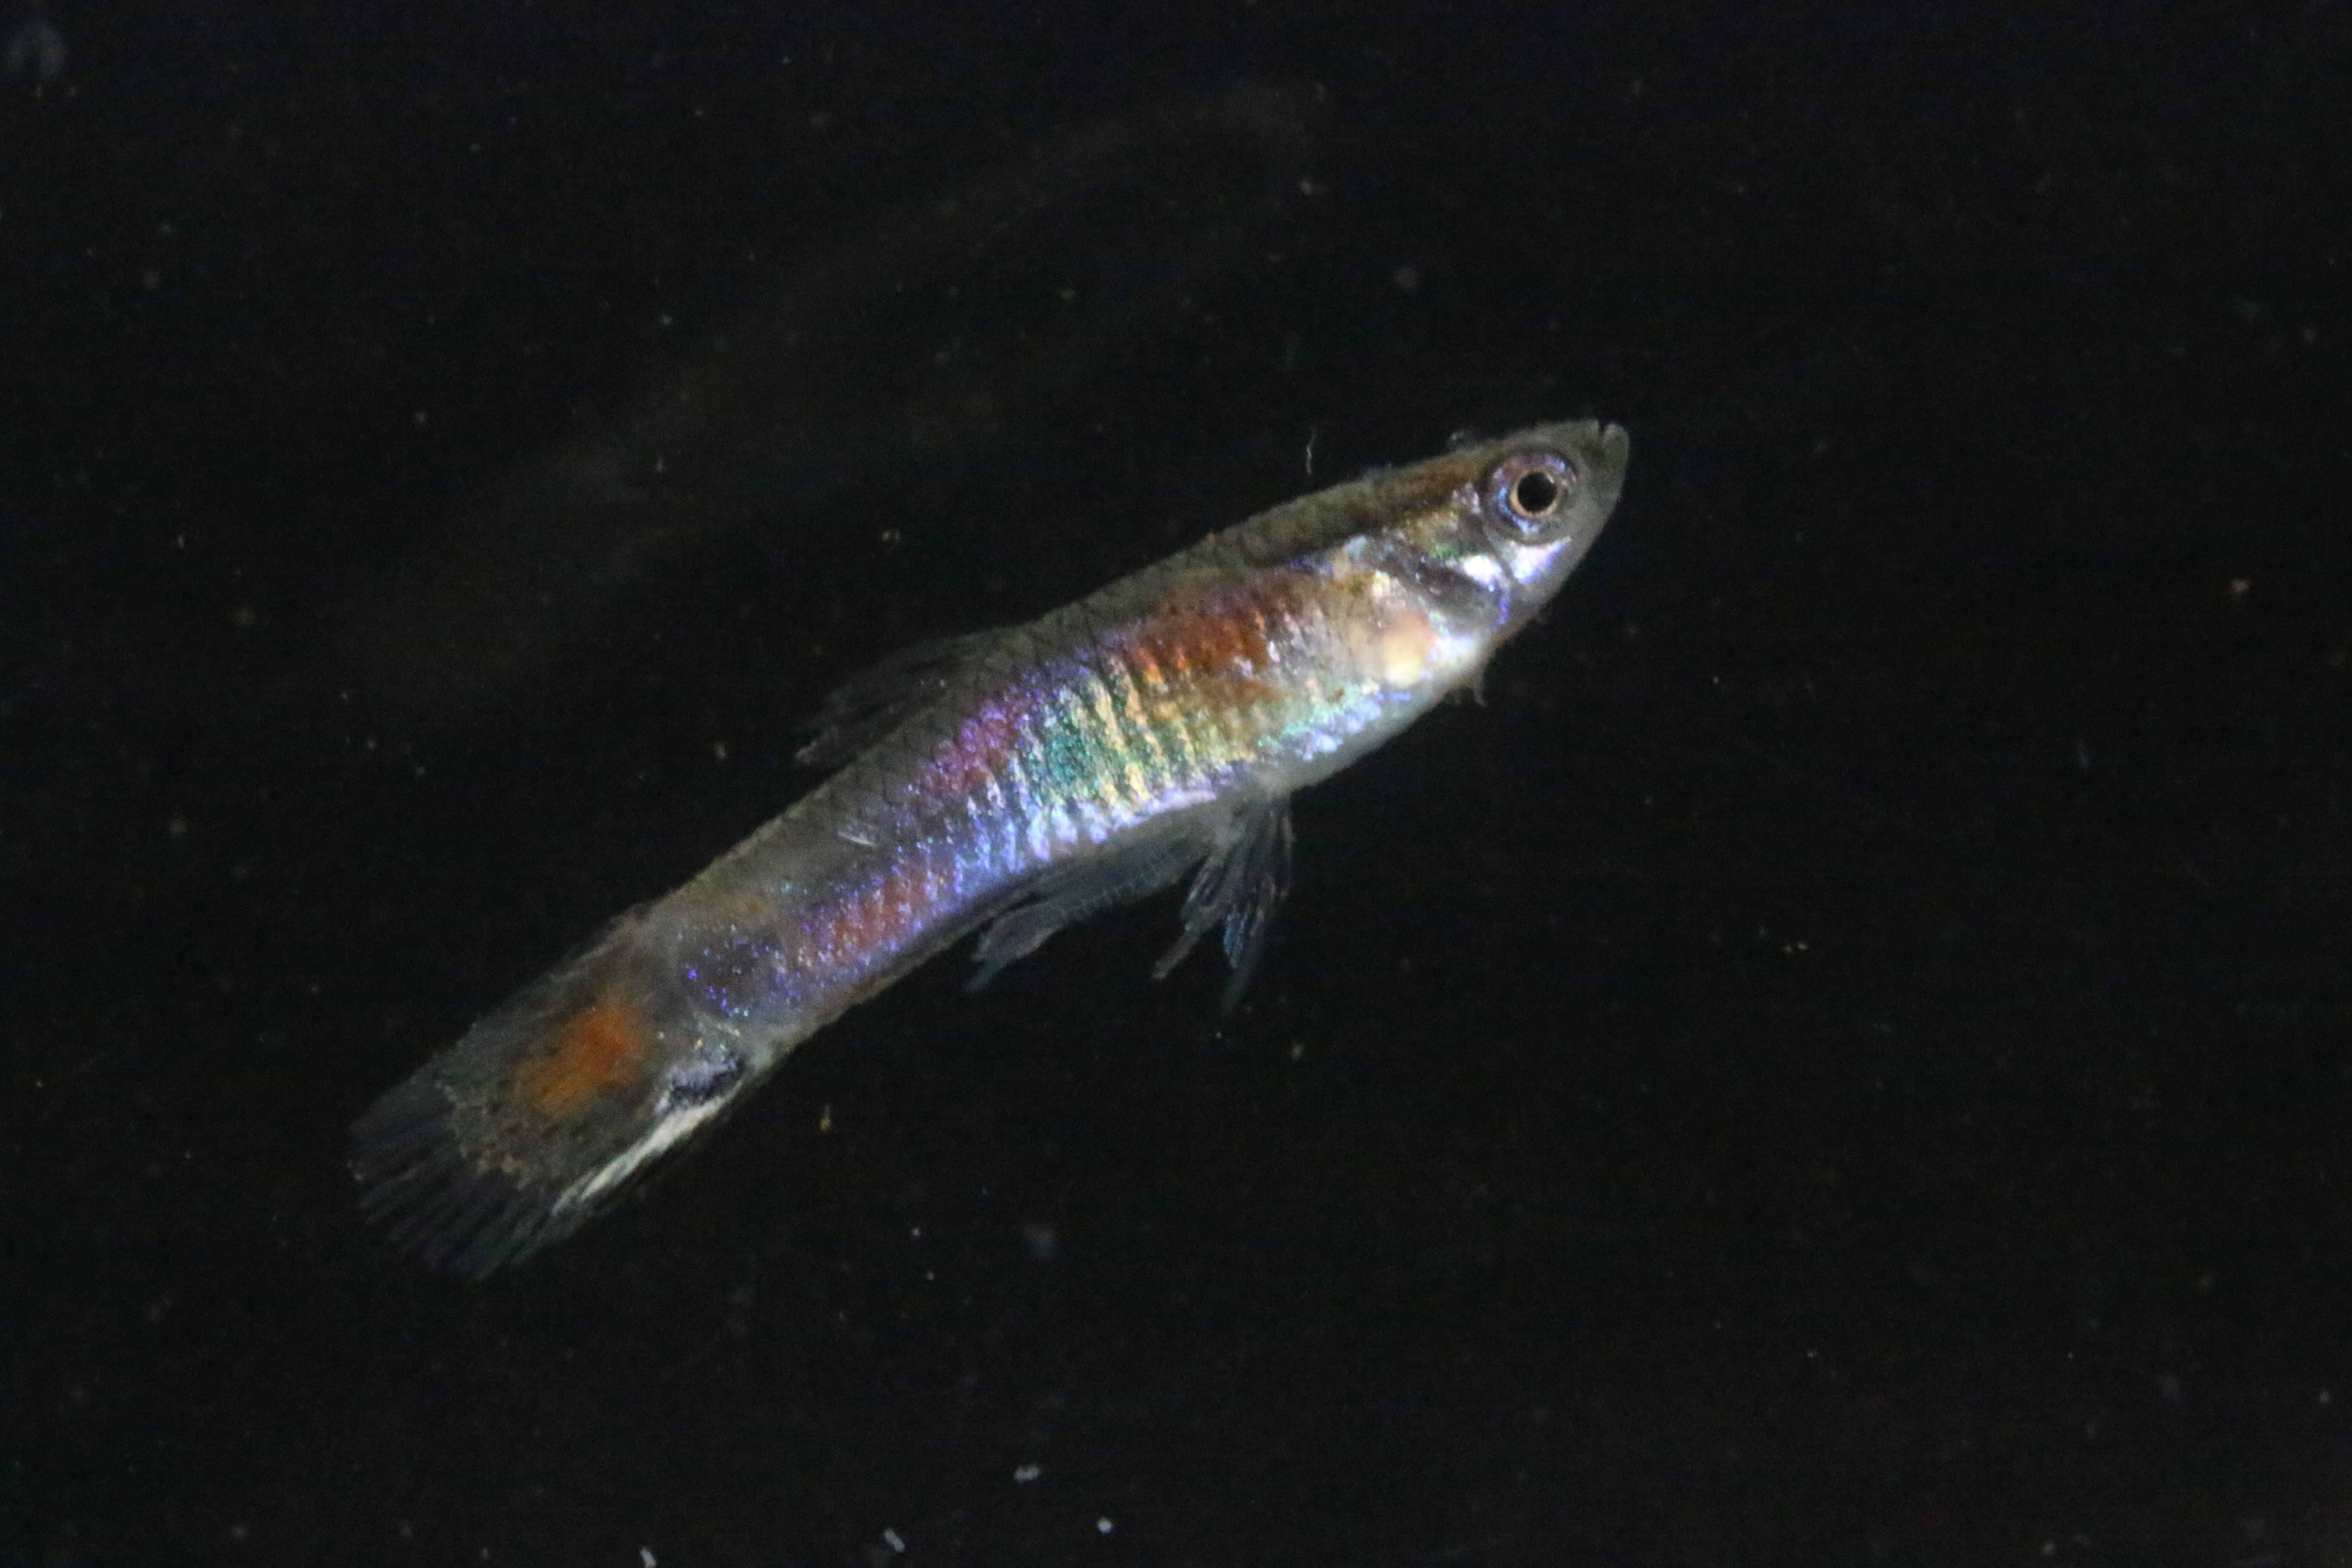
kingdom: Animalia
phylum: Chordata
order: Cyprinodontiformes
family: Poeciliidae
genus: Poecilia
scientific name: Poecilia reticulata
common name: Guppy
